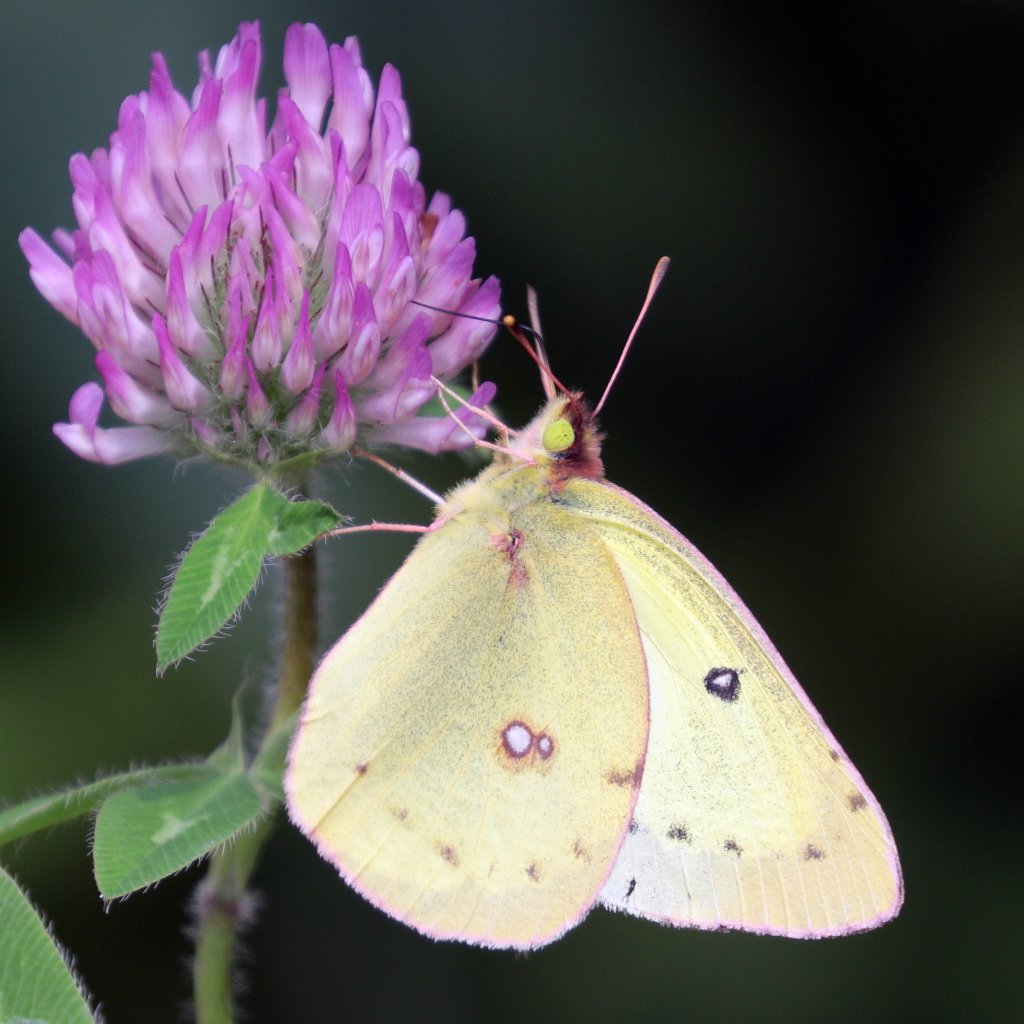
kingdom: Animalia
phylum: Arthropoda
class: Insecta
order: Lepidoptera
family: Pieridae
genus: Colias
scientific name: Colias philodice
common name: Clouded Sulphur
